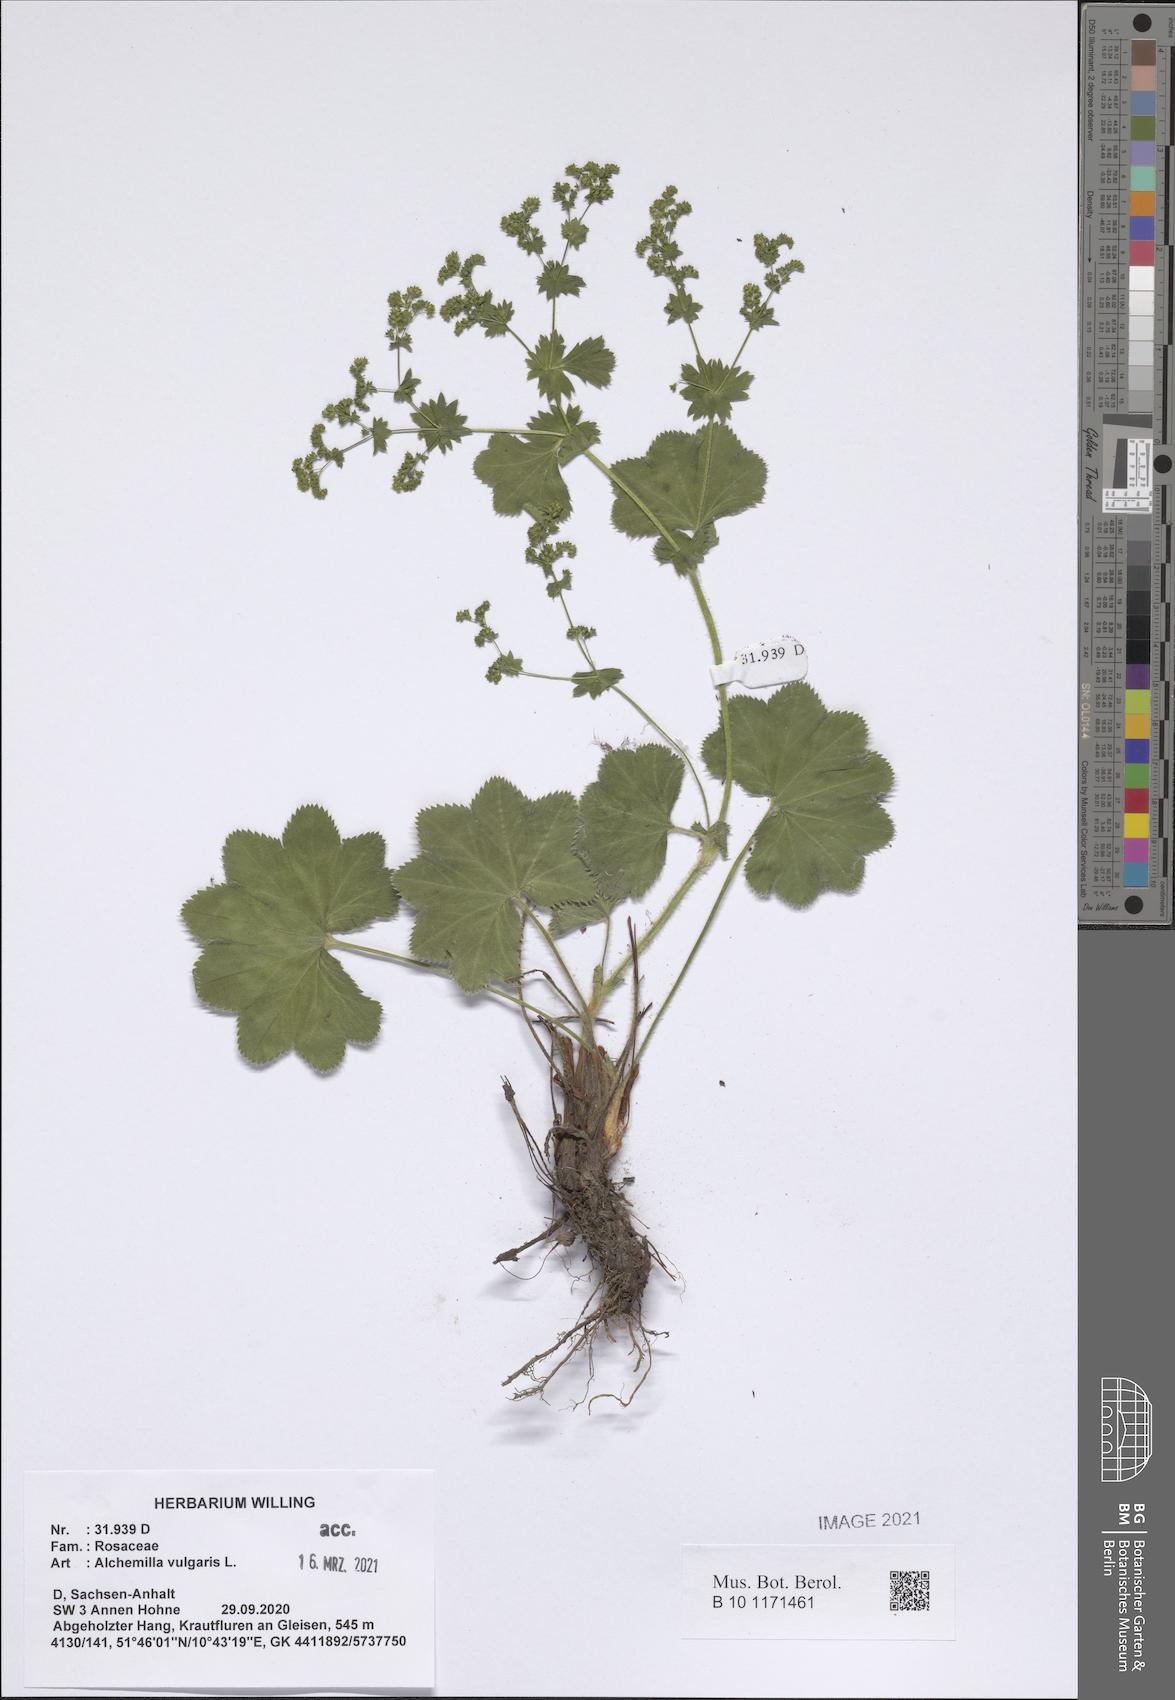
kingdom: Plantae
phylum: Tracheophyta
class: Magnoliopsida
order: Rosales
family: Rosaceae
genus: Alchemilla
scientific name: Alchemilla vulgaris
